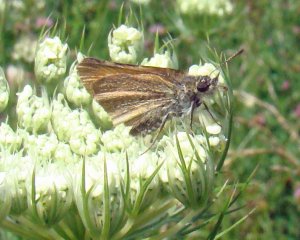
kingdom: Animalia
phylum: Arthropoda
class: Insecta
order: Lepidoptera
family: Hesperiidae
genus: Thymelicus
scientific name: Thymelicus lineola
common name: European Skipper
